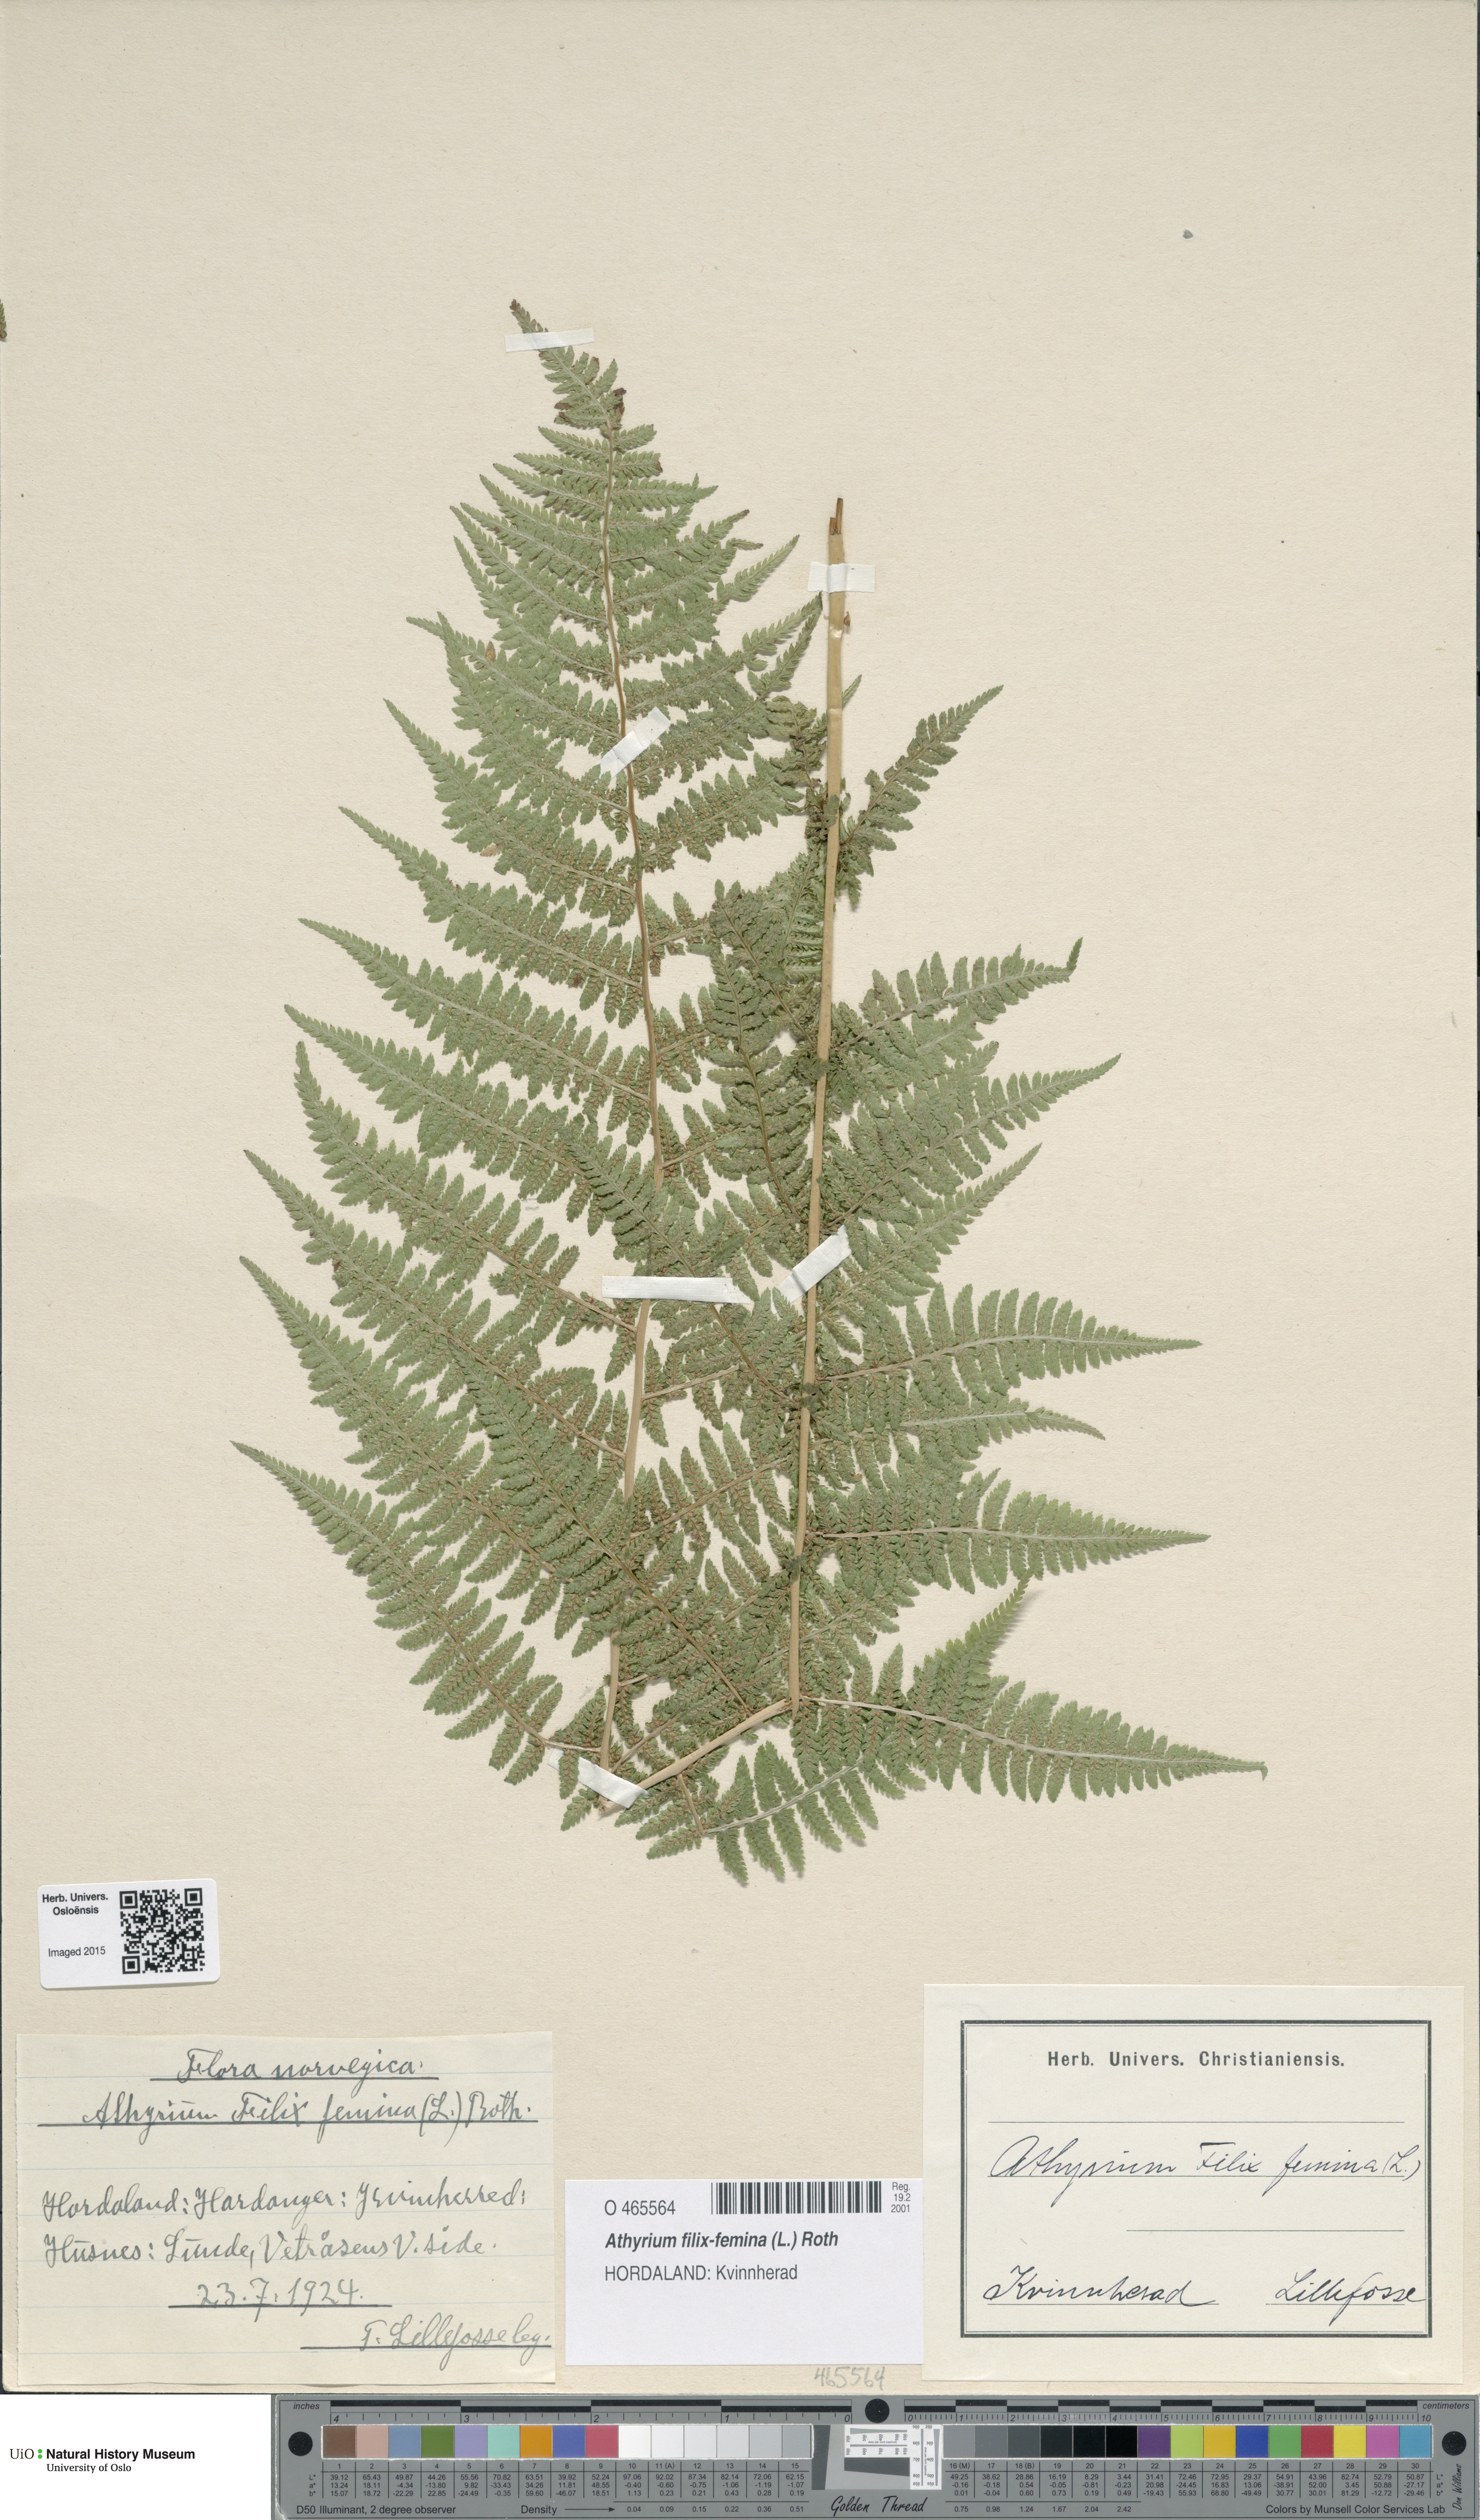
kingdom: Plantae
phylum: Tracheophyta
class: Polypodiopsida
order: Polypodiales
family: Athyriaceae
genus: Athyrium
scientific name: Athyrium filix-femina
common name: Lady fern
